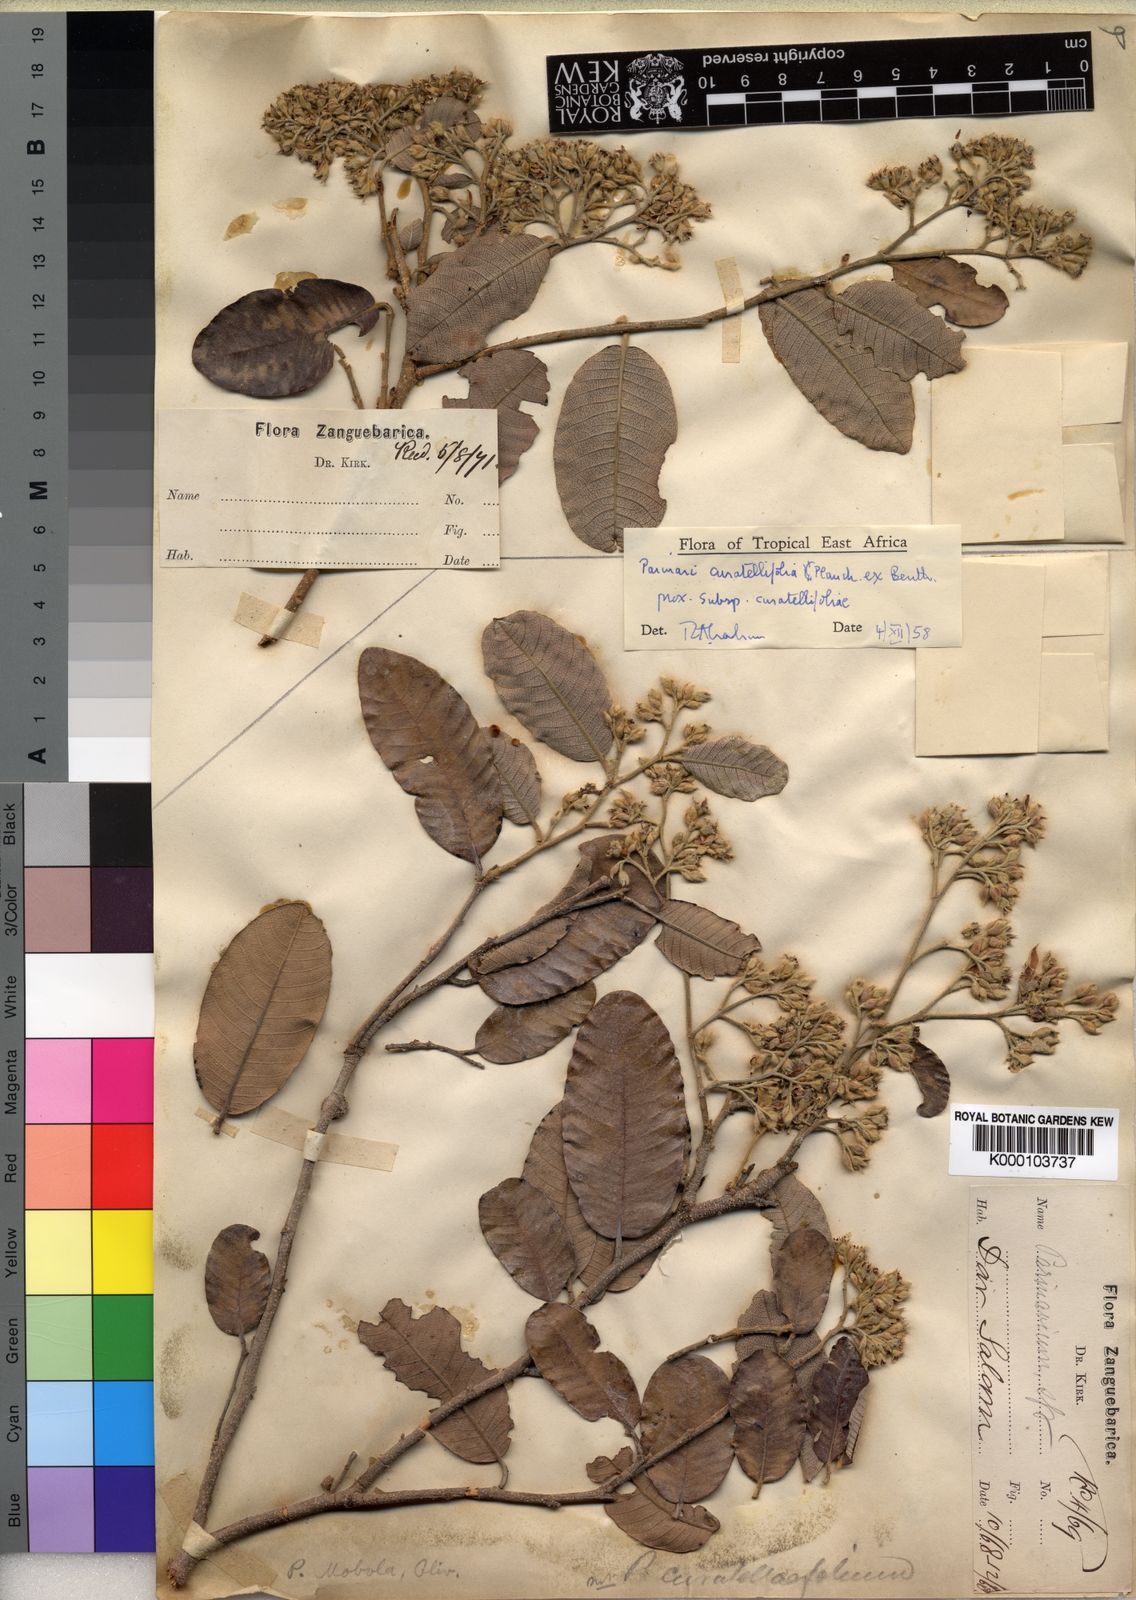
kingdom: Plantae
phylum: Tracheophyta
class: Magnoliopsida
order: Malpighiales
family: Chrysobalanaceae
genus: Parinari
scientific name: Parinari curatellifolia
